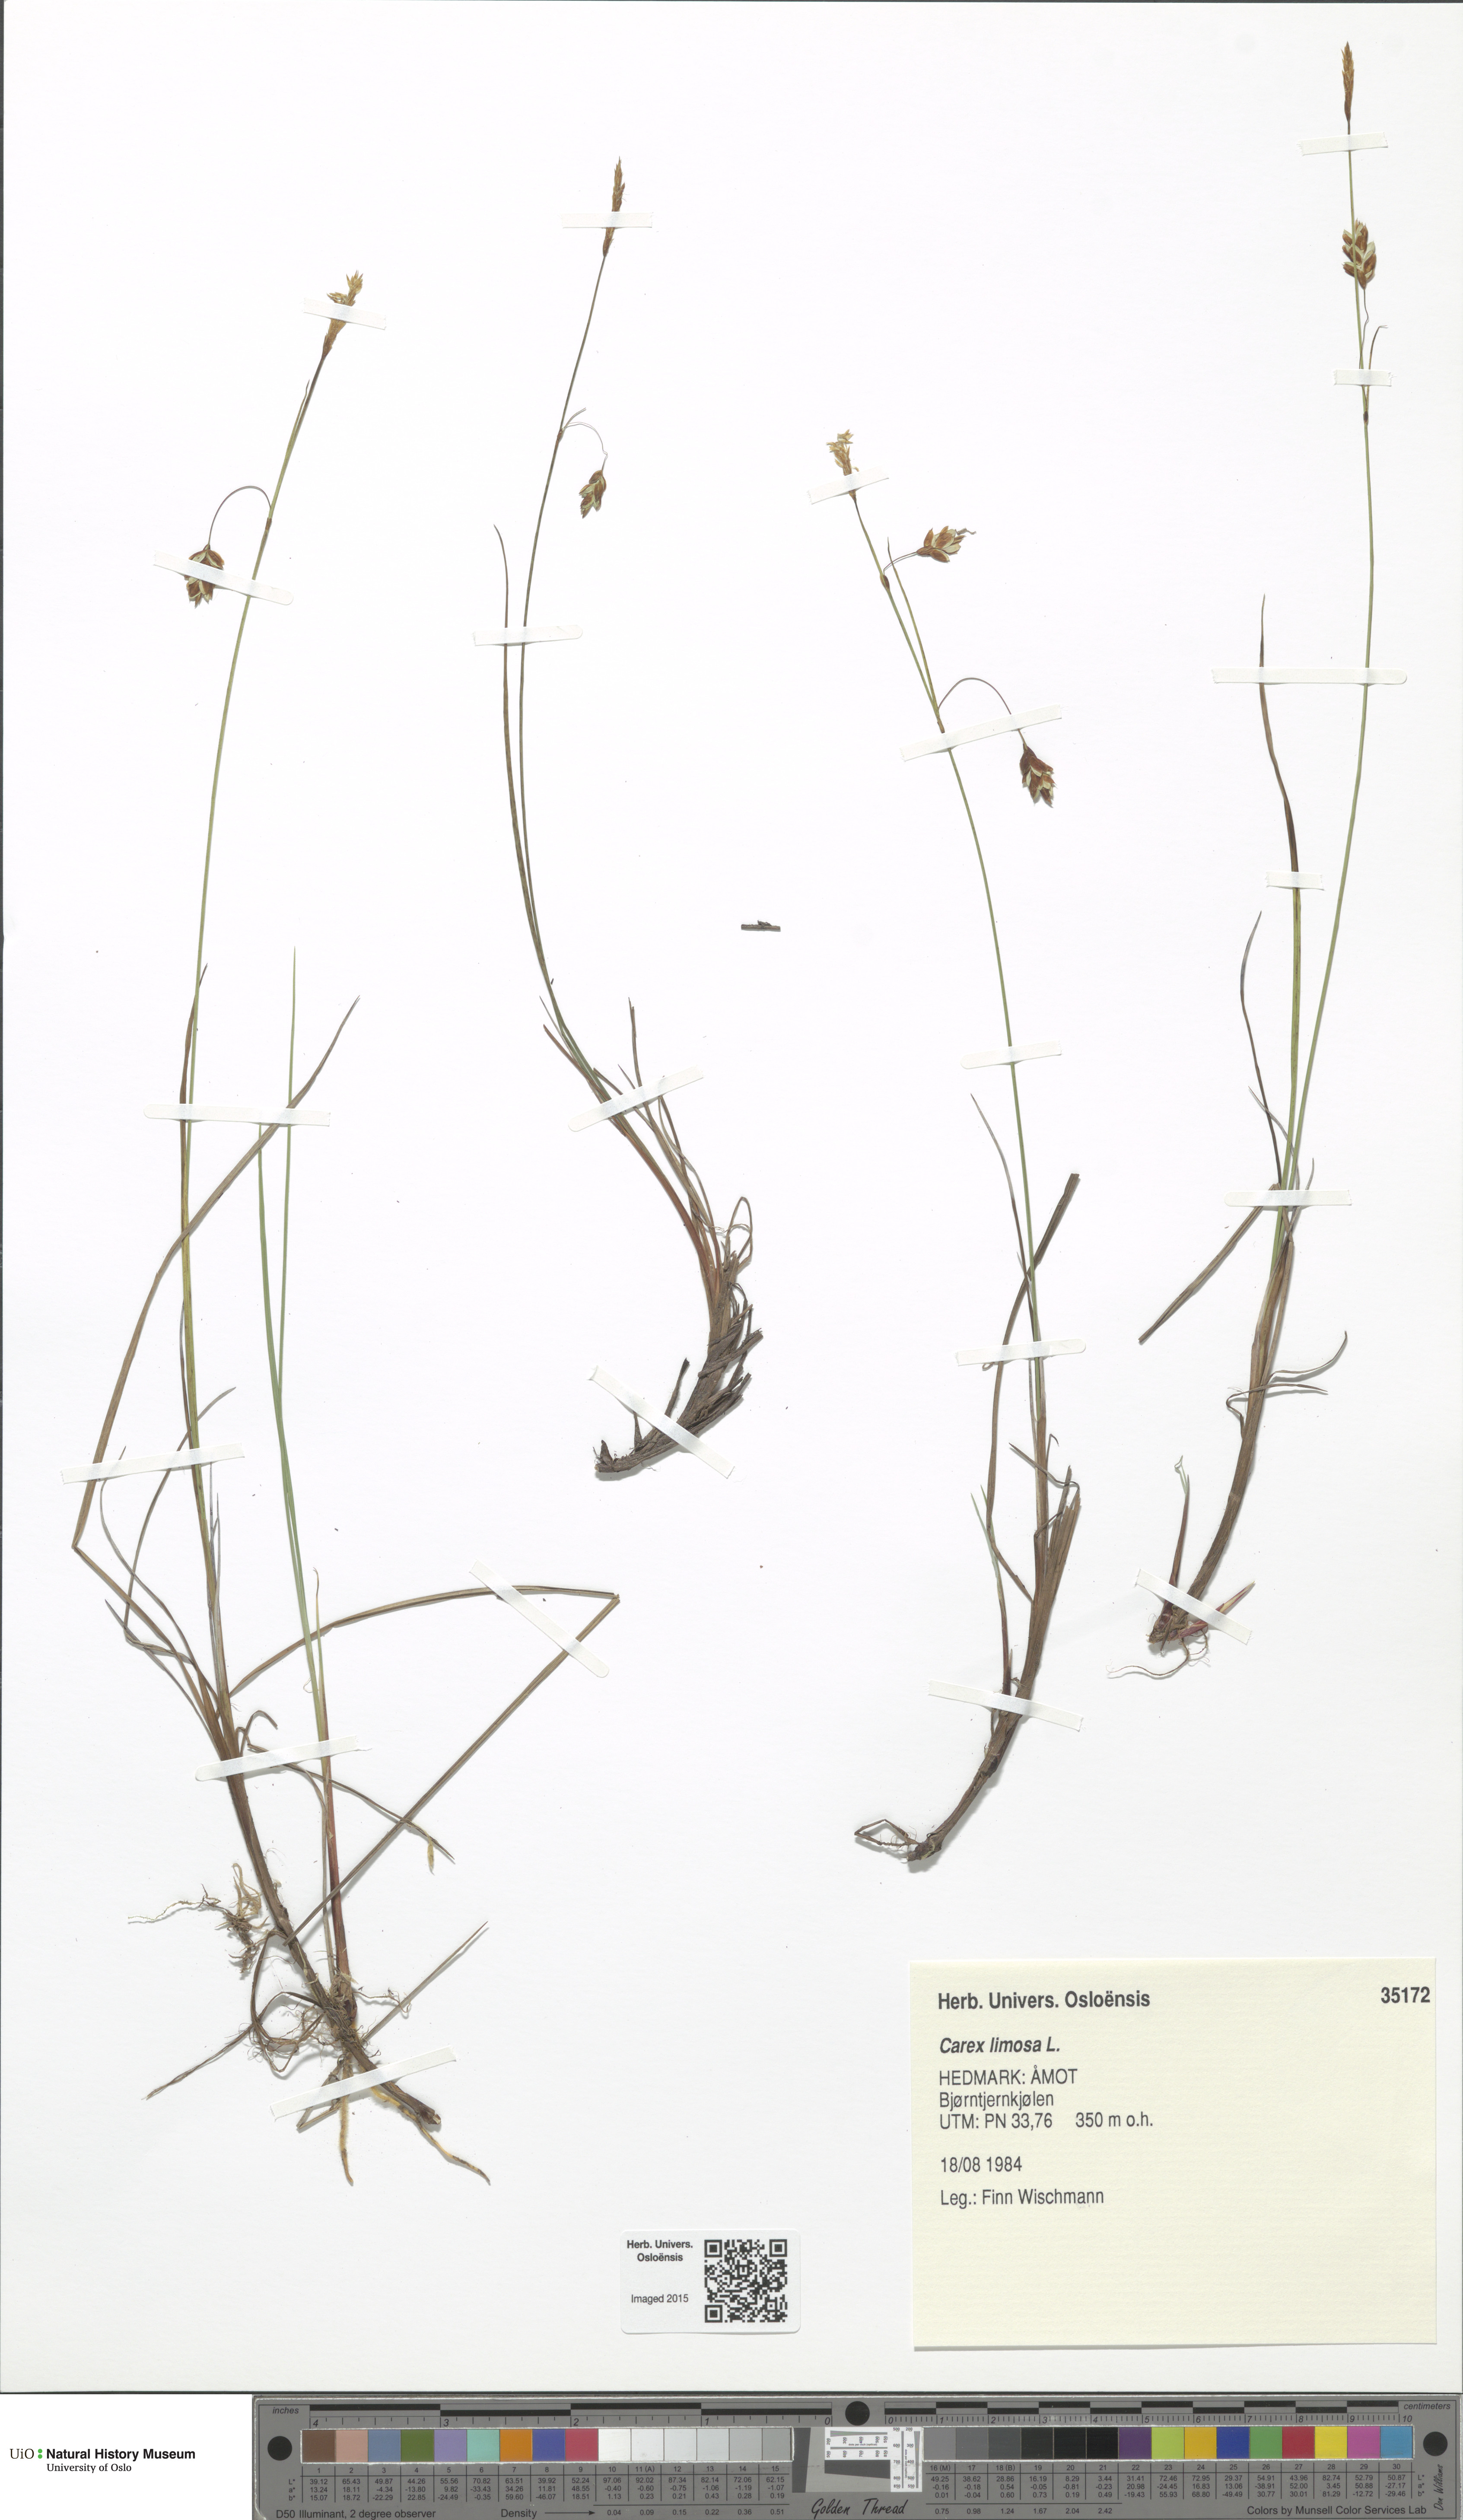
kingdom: Plantae
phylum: Tracheophyta
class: Liliopsida
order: Poales
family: Cyperaceae
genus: Carex
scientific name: Carex limosa
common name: Bog sedge
